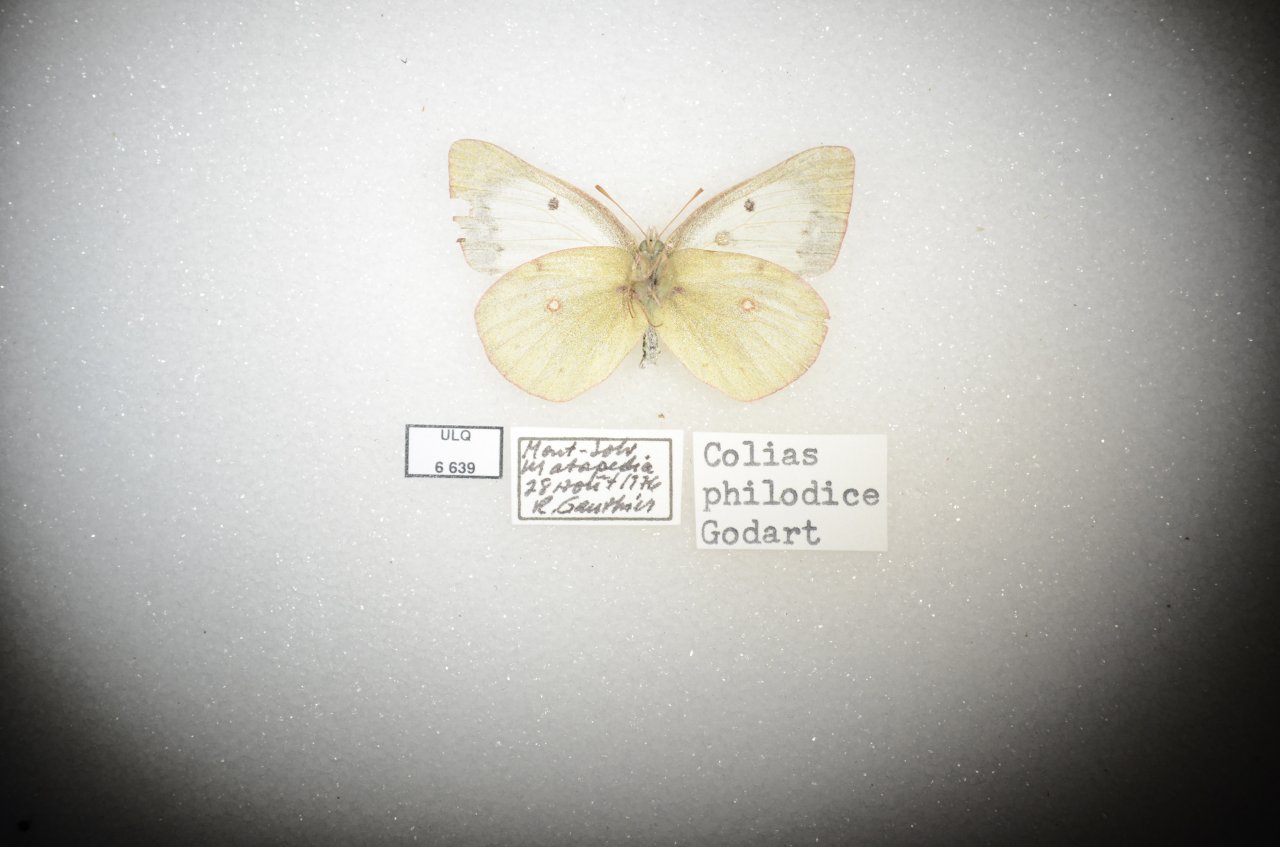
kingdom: Animalia
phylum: Arthropoda
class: Insecta
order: Lepidoptera
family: Pieridae
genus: Colias
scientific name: Colias philodice
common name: Clouded Sulphur
